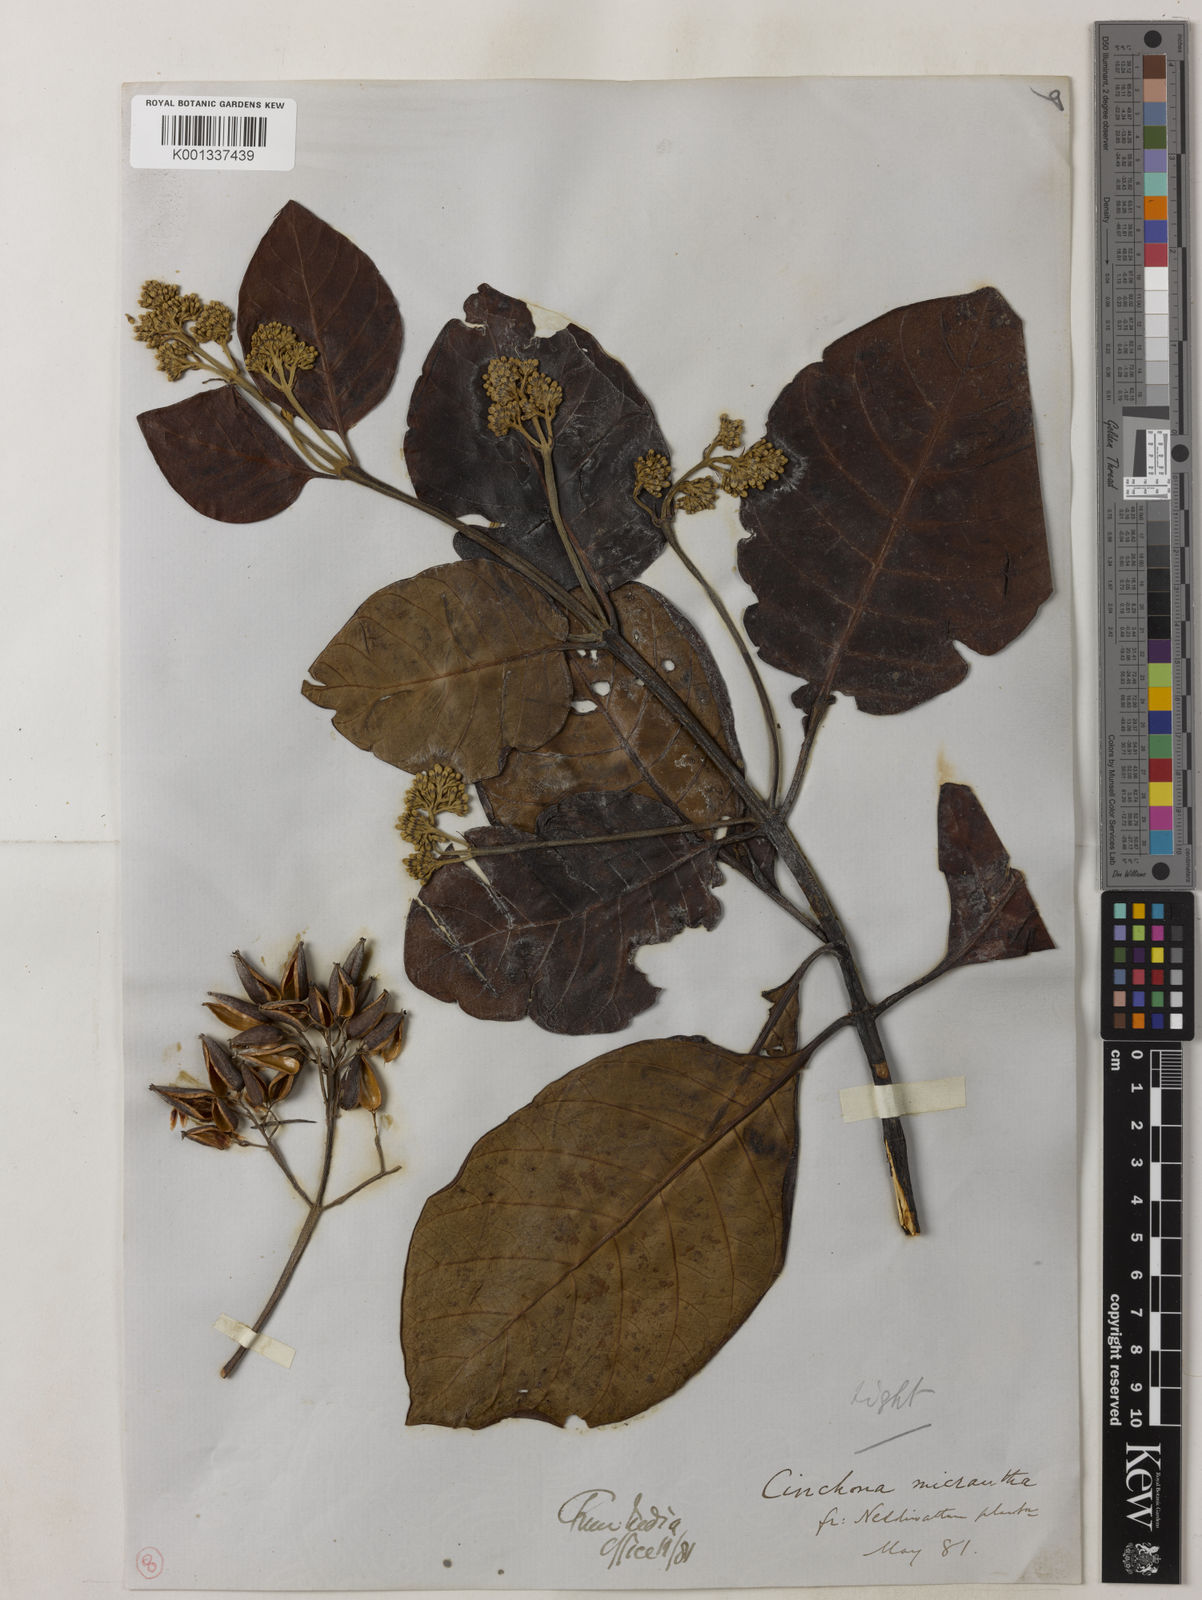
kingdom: Plantae
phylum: Tracheophyta
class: Magnoliopsida
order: Gentianales
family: Rubiaceae
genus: Cinchona
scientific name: Cinchona micrantha
